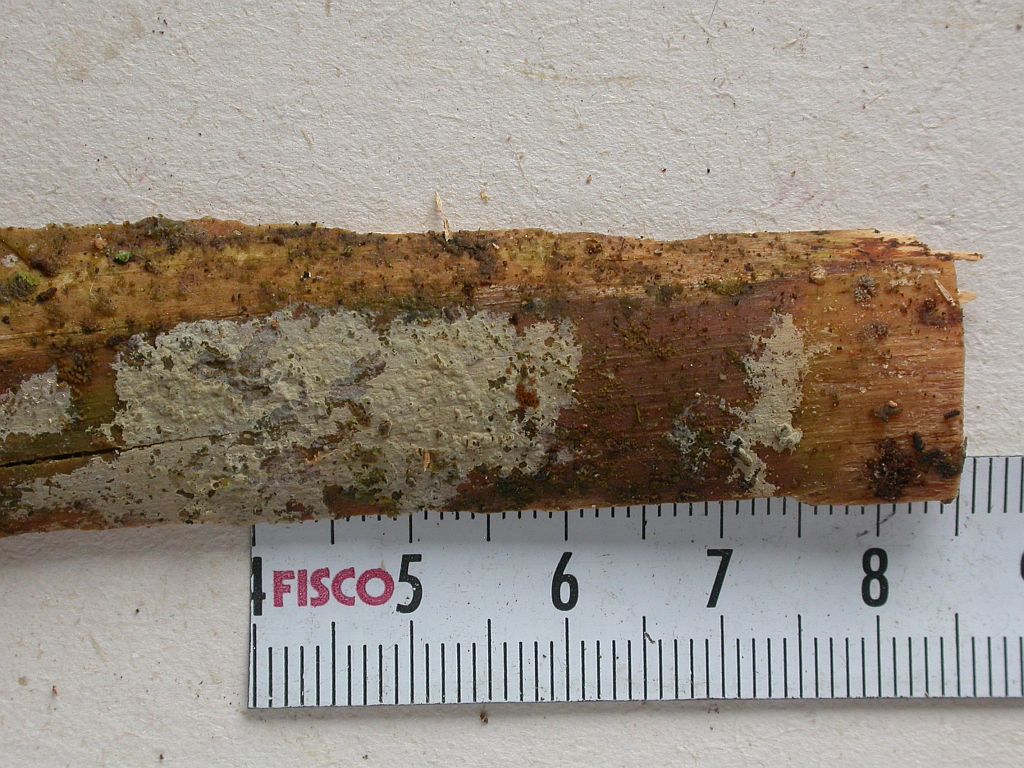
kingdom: Fungi
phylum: Basidiomycota
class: Agaricomycetes
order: Polyporales
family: Hyphodermataceae
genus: Kneiffia
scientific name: Kneiffia subalutacea
